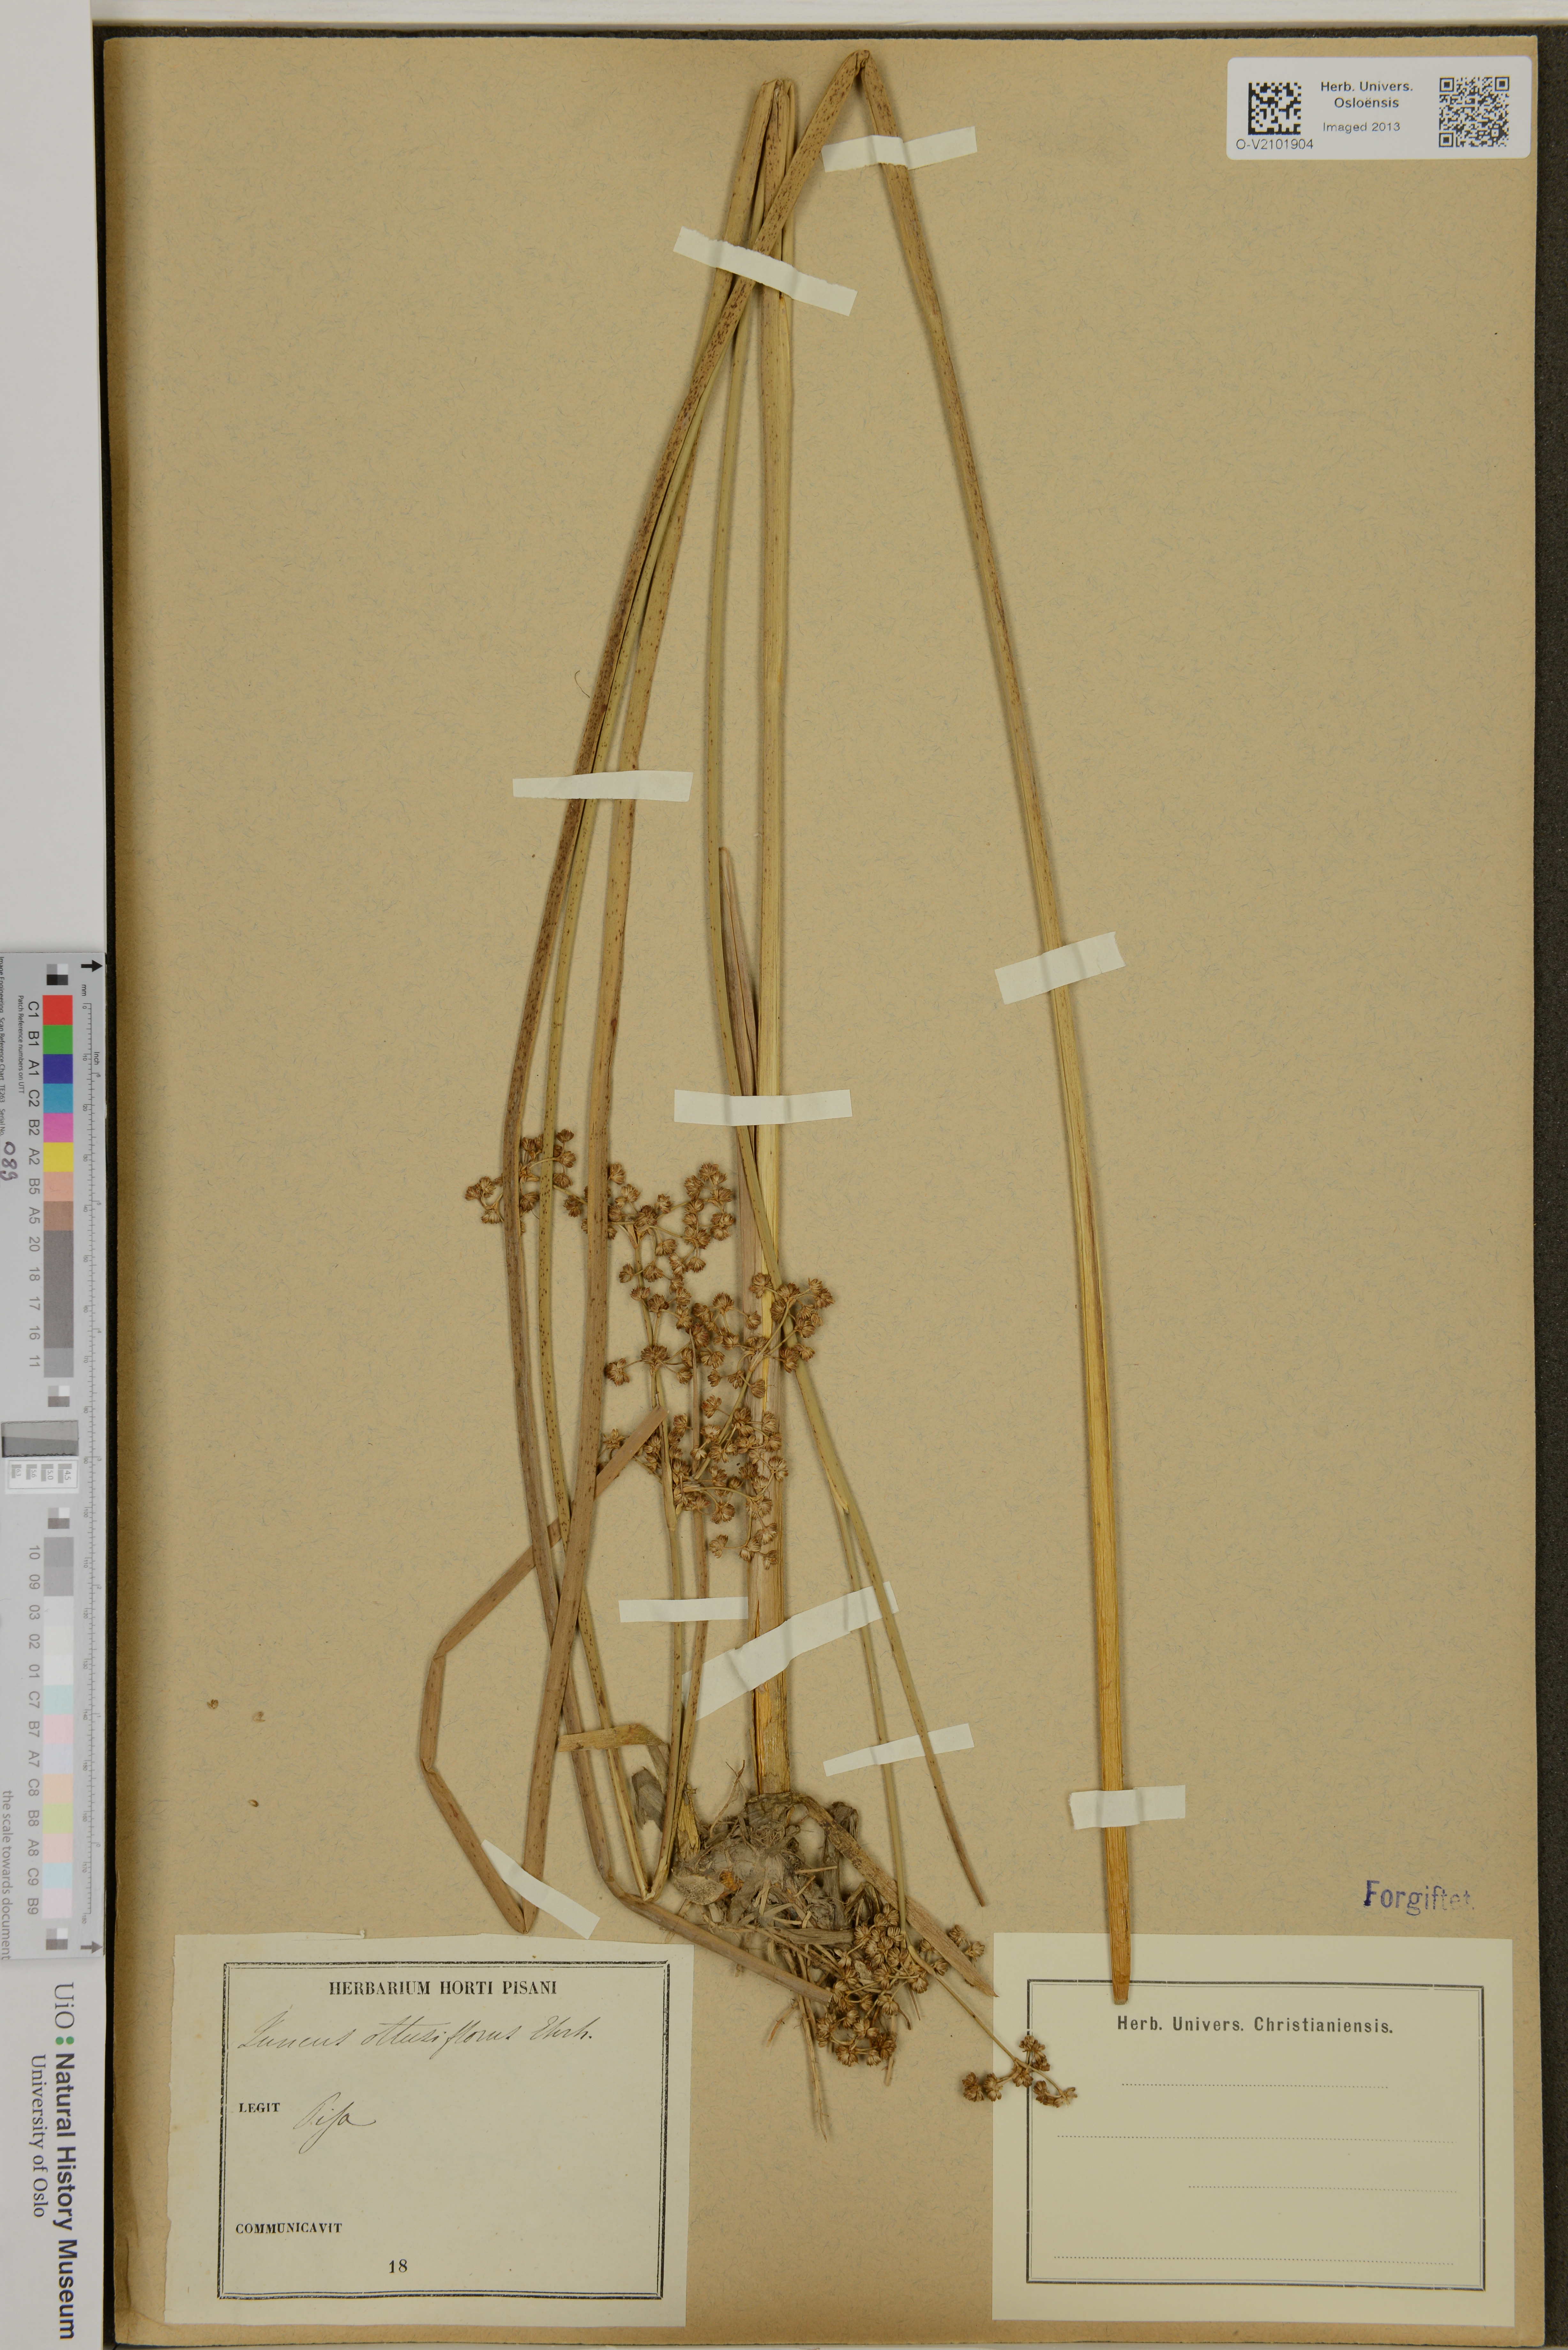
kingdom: Plantae
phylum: Tracheophyta
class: Liliopsida
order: Poales
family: Juncaceae
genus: Juncus
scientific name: Juncus
